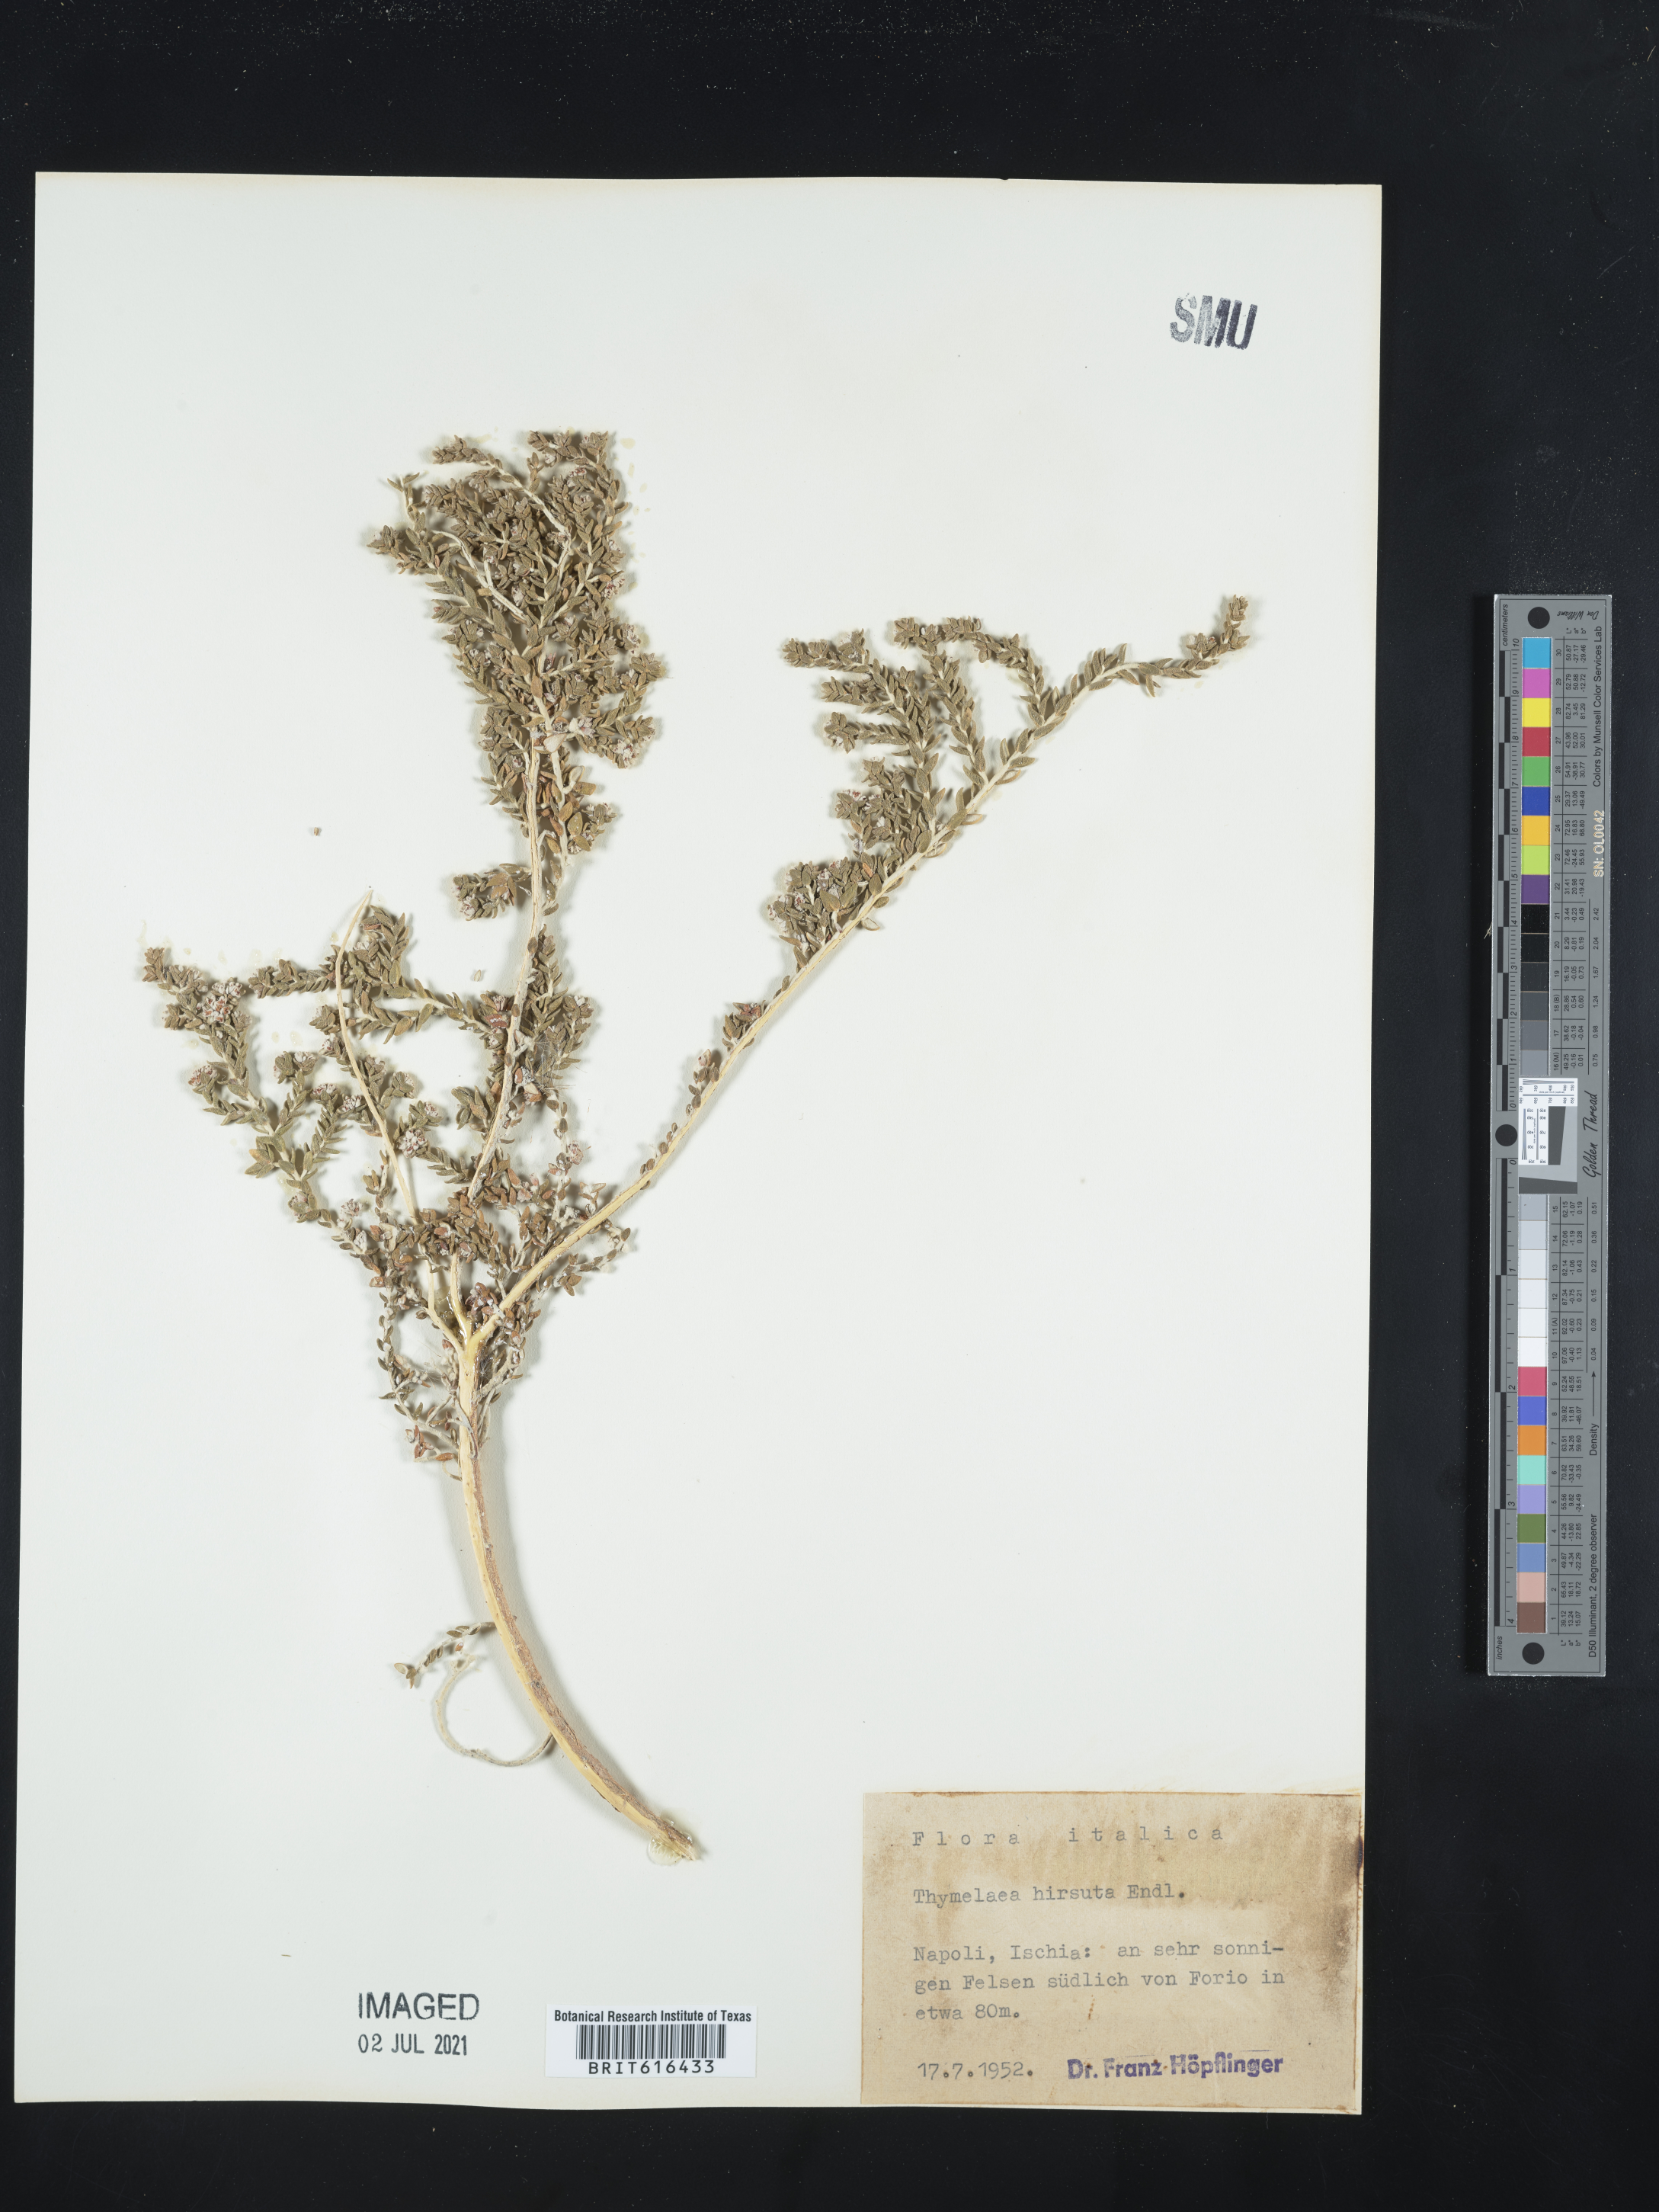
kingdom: Plantae
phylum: Tracheophyta
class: Magnoliopsida
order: Malvales
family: Thymelaeaceae
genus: Thymelaea
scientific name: Thymelaea hirsuta
